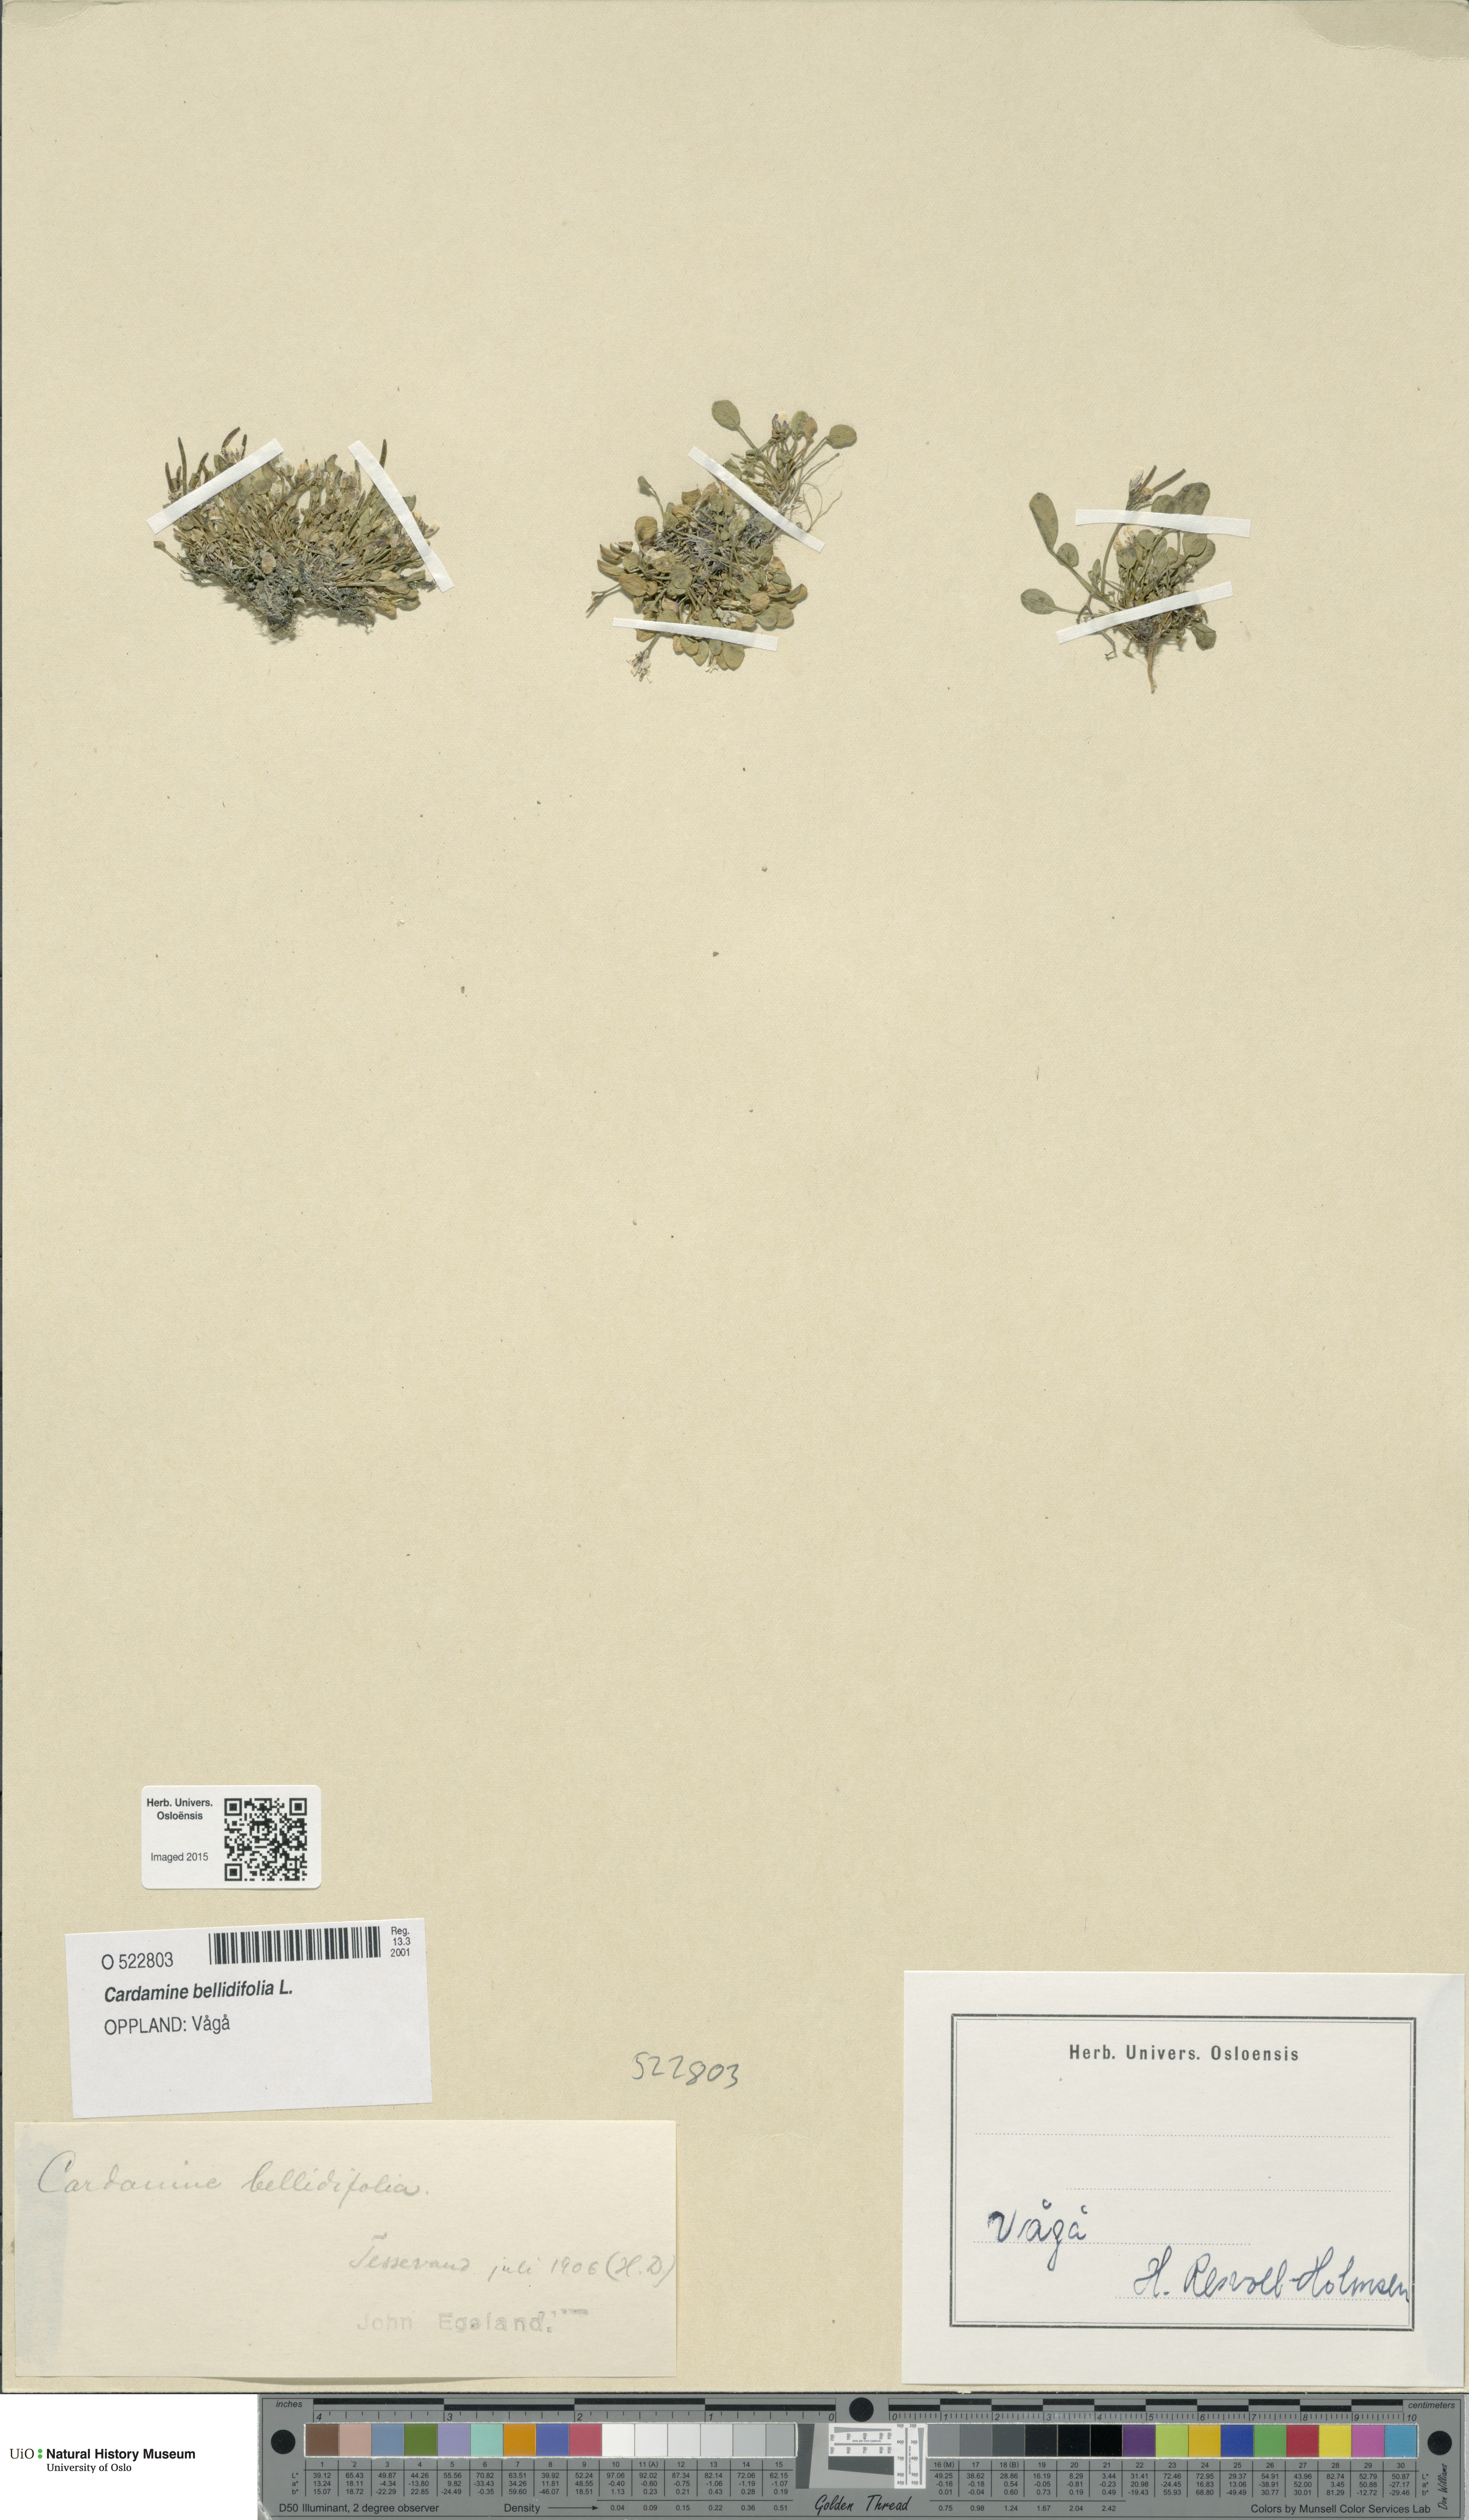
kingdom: Plantae
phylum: Tracheophyta
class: Magnoliopsida
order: Brassicales
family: Brassicaceae
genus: Cardamine
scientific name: Cardamine bellidifolia
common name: Alpine bittercress
